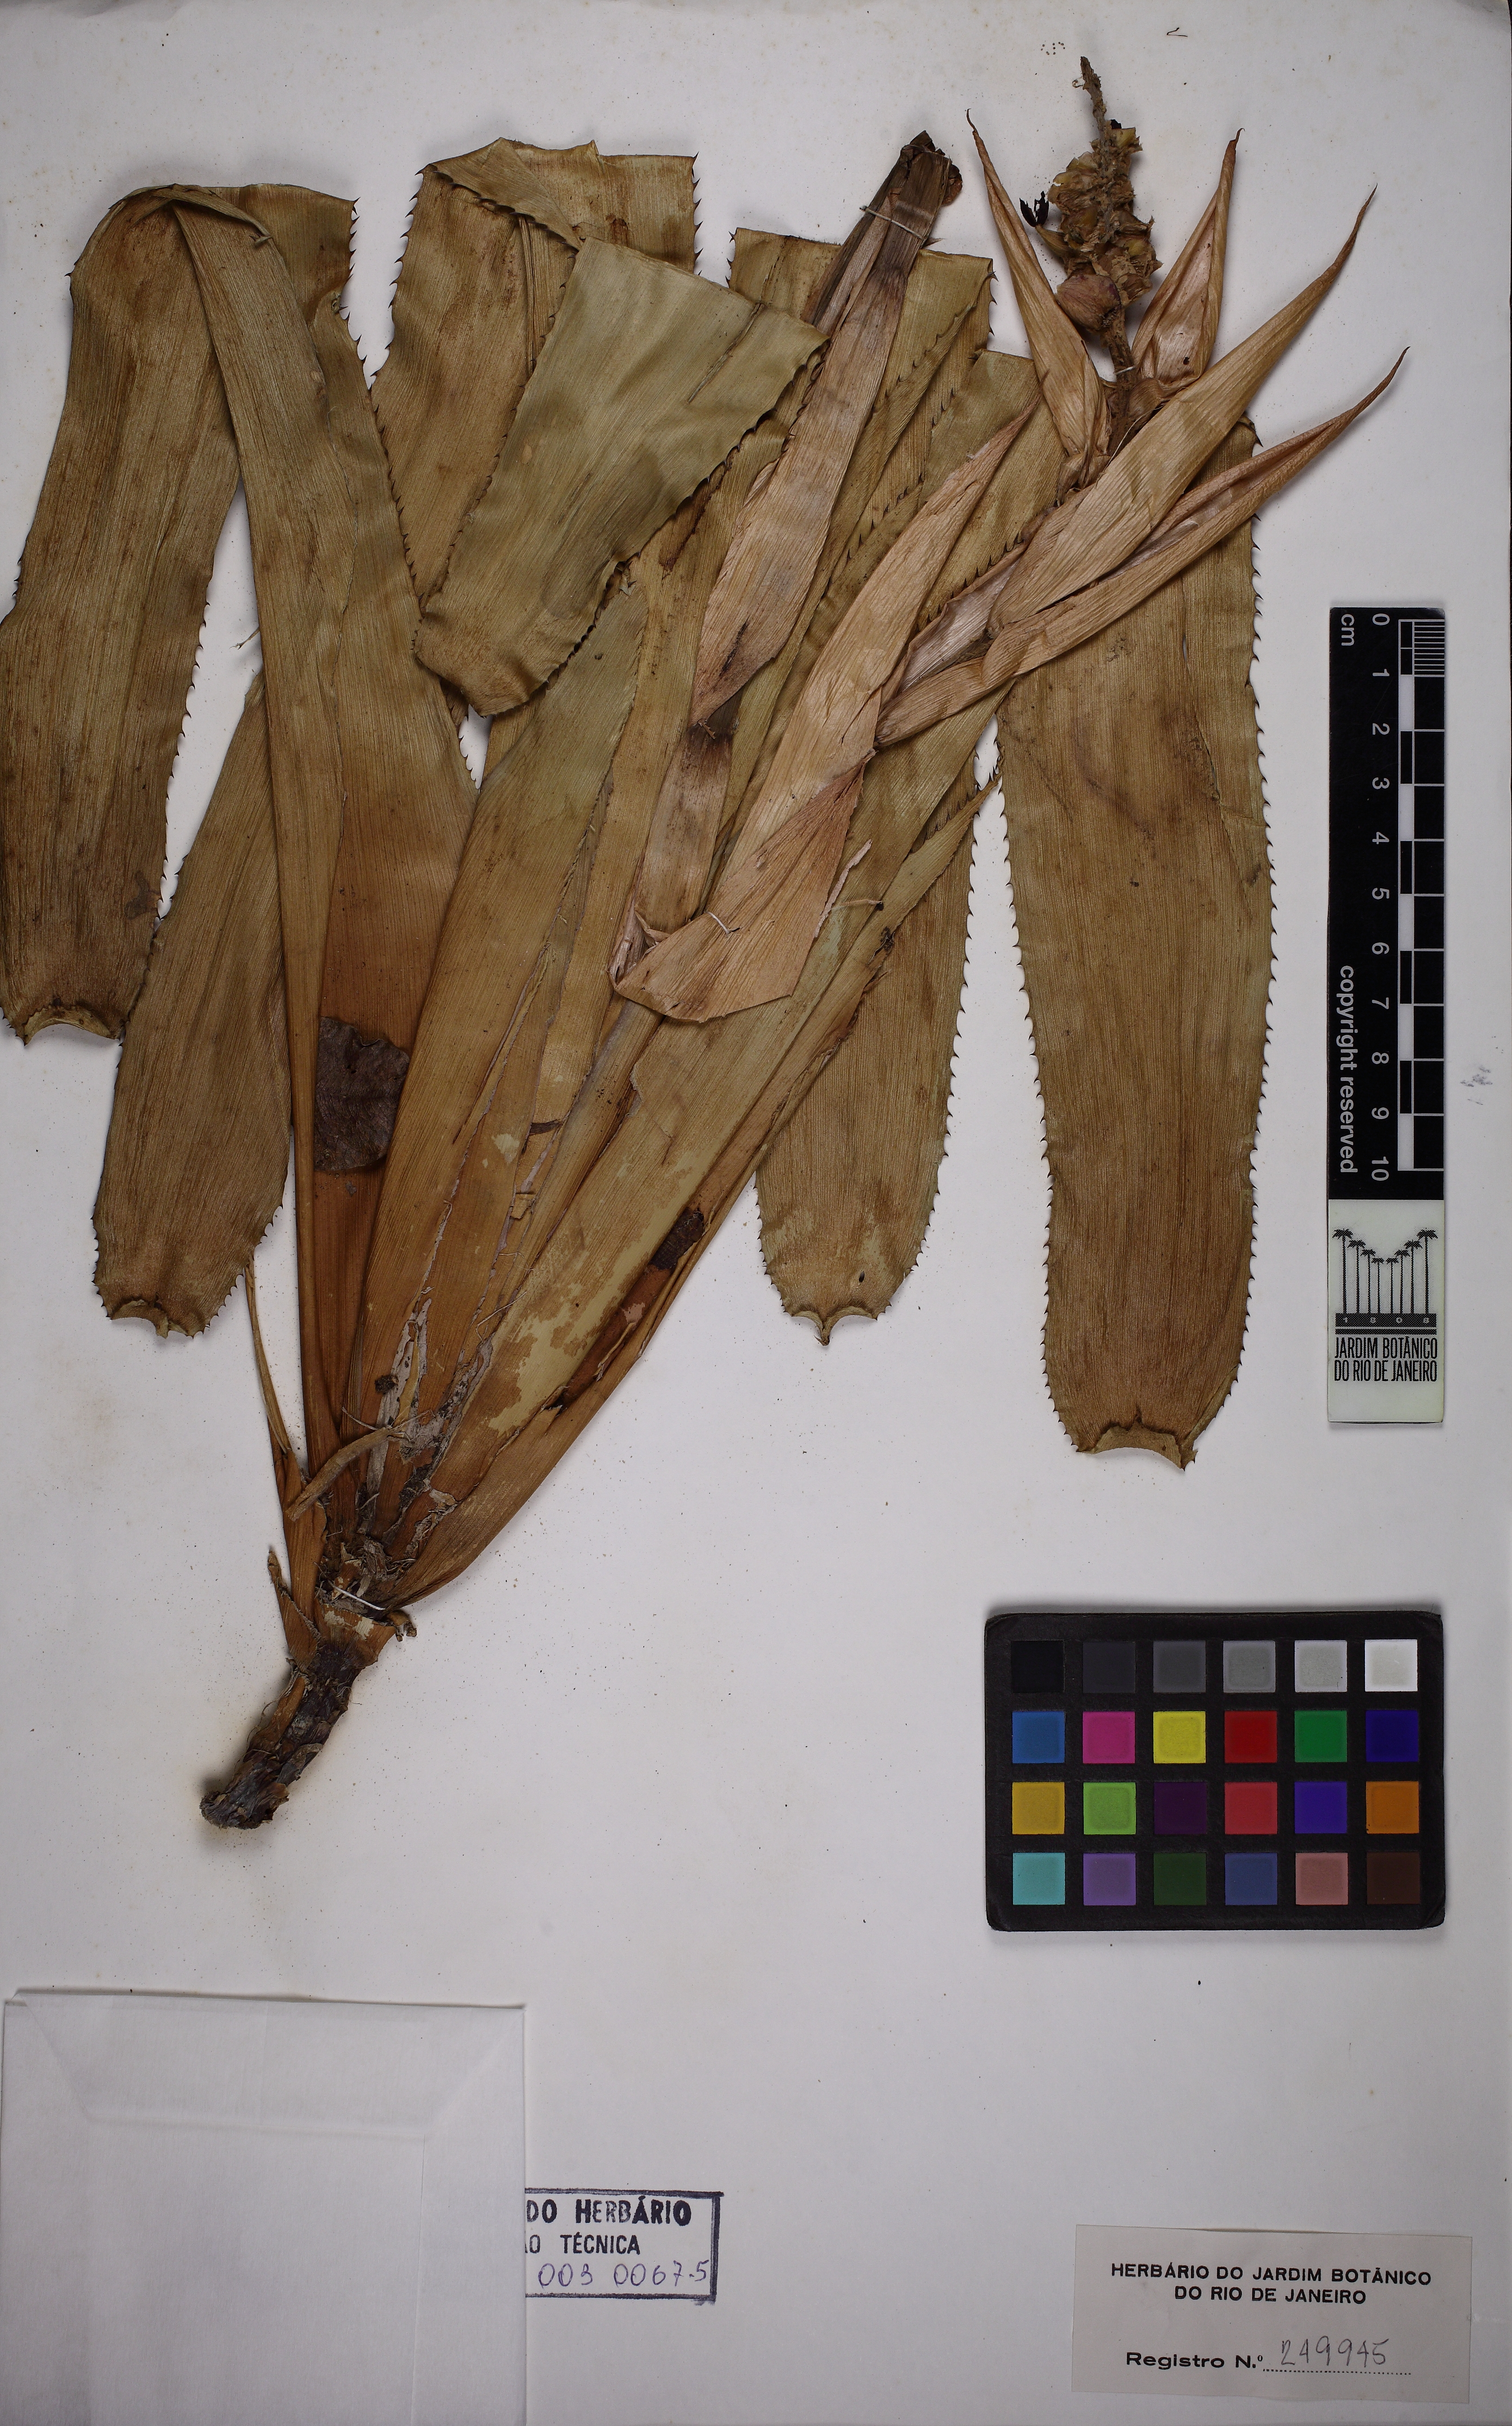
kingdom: Plantae
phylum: Tracheophyta
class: Liliopsida
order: Poales
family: Bromeliaceae
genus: Aechmea
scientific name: Aechmea maasii
